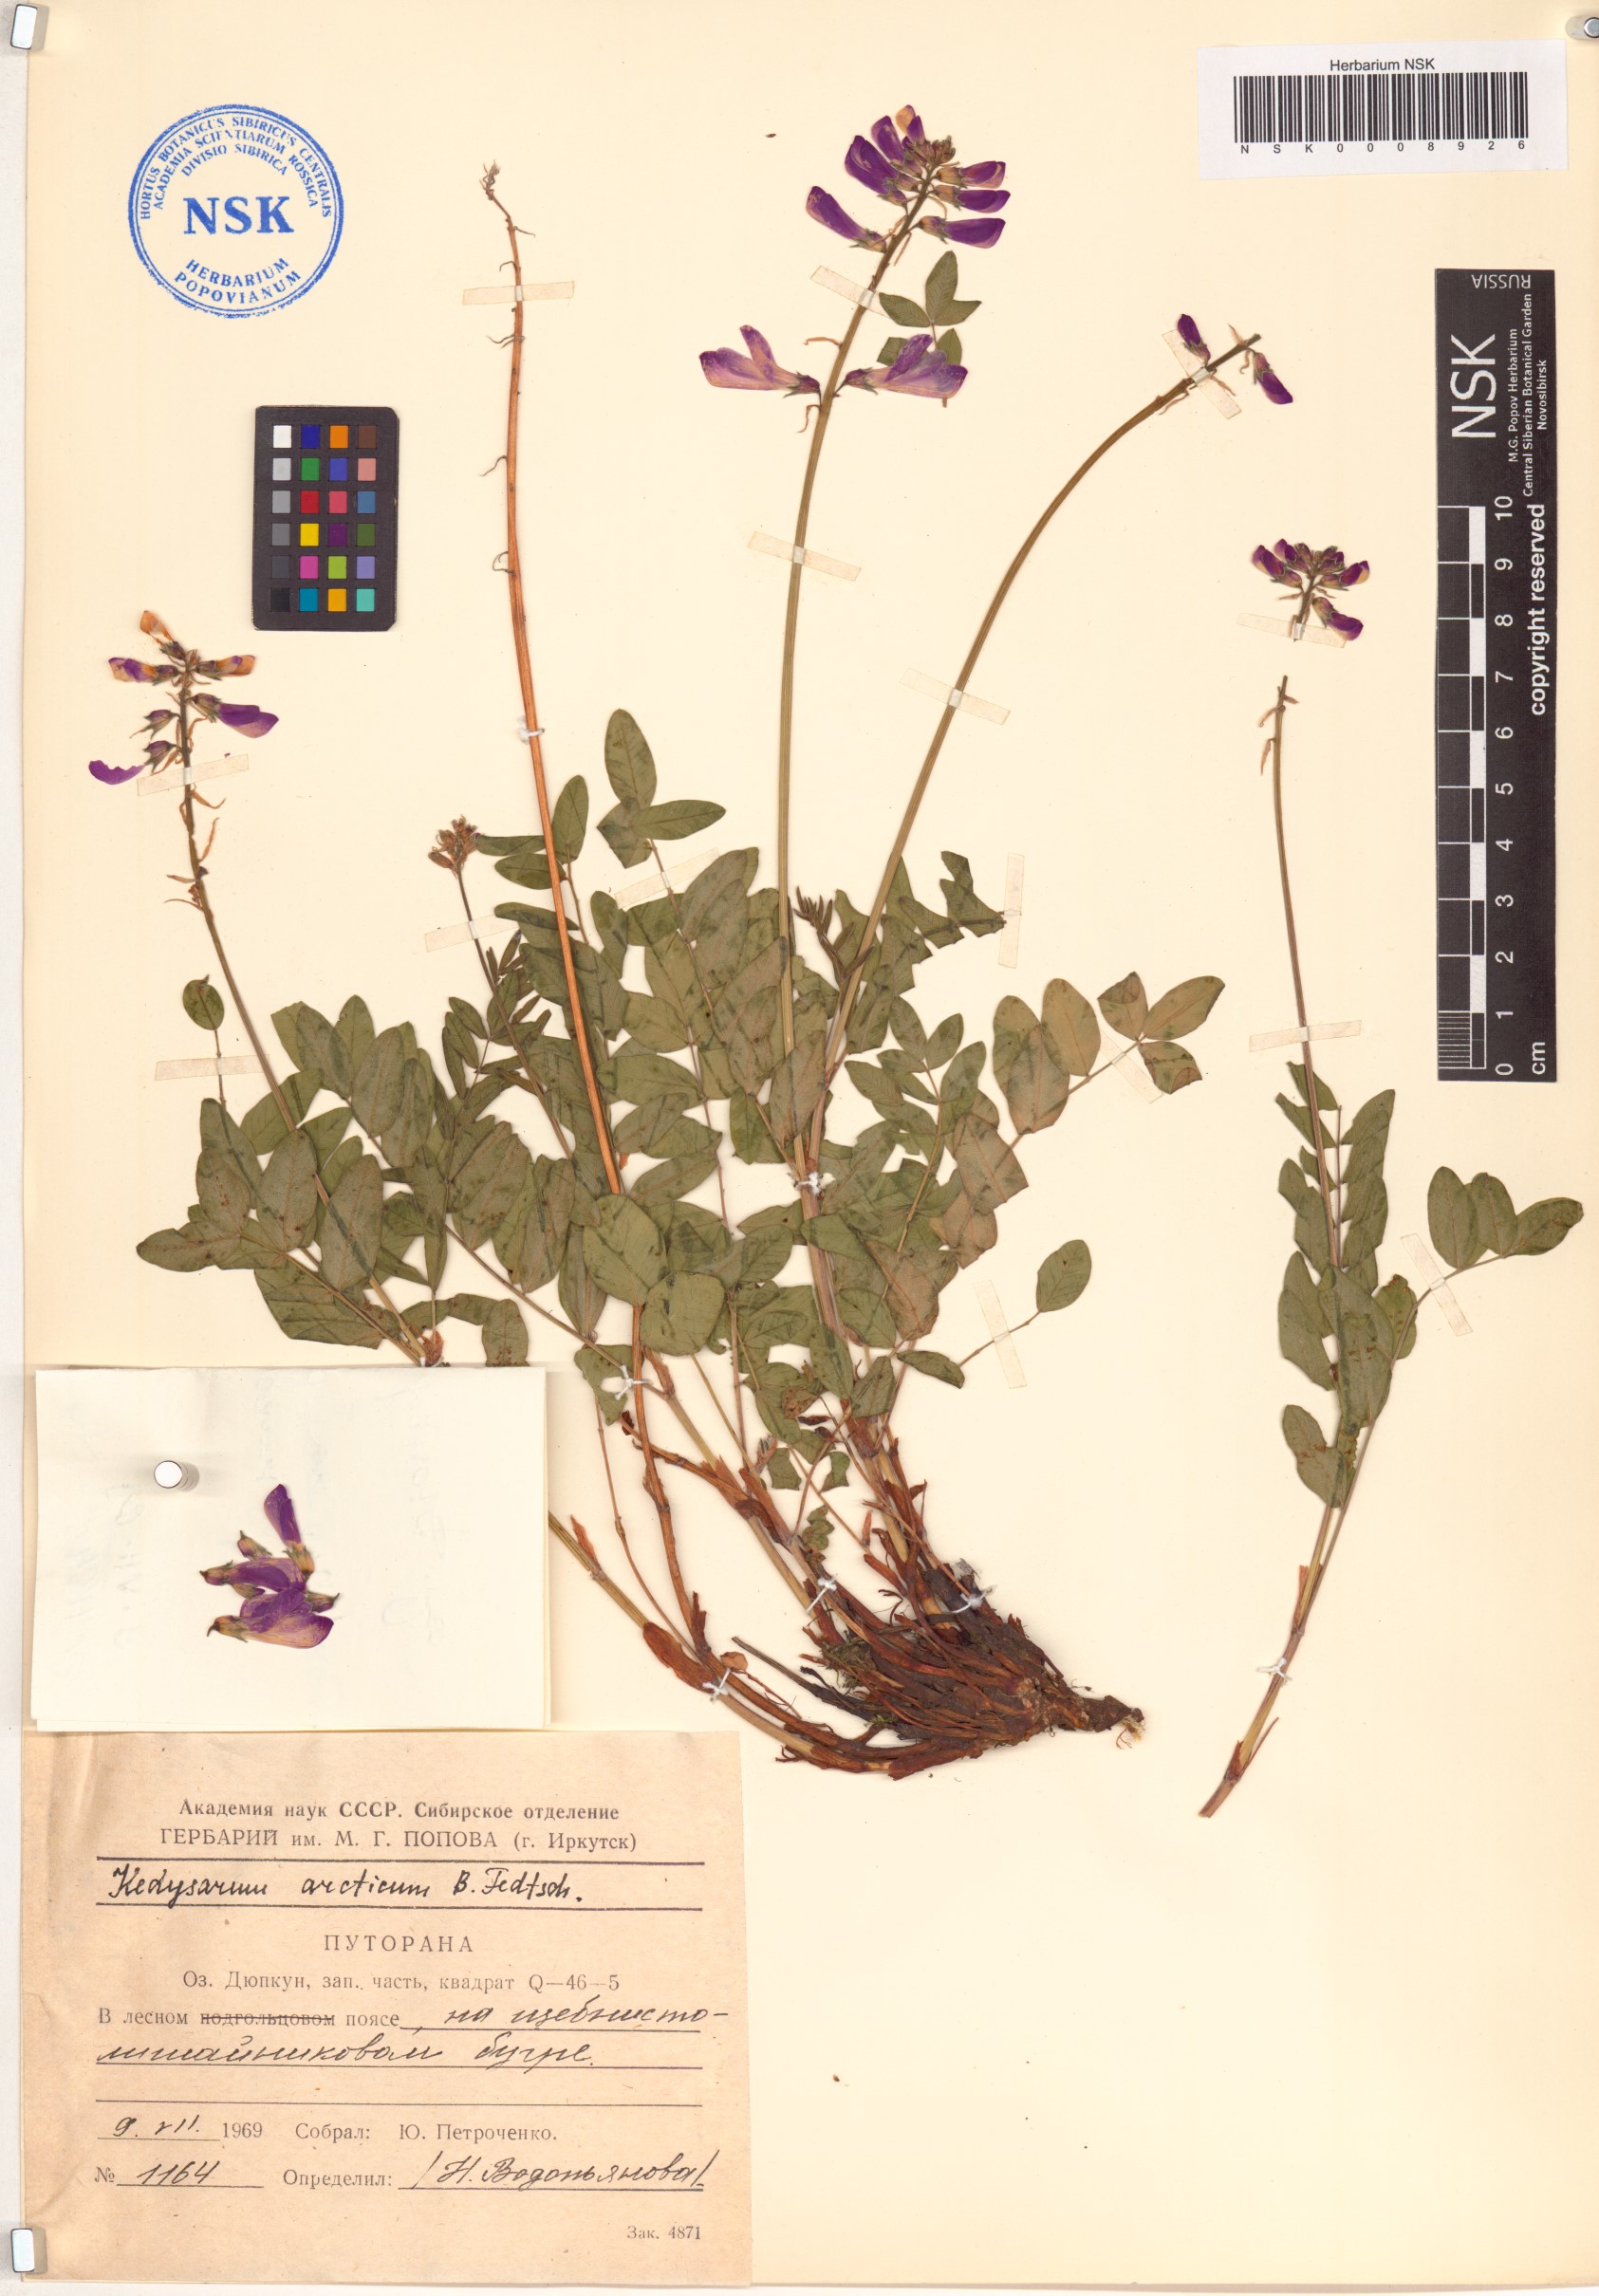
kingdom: Plantae
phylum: Tracheophyta
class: Magnoliopsida
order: Fabales
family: Fabaceae
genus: Hedysarum
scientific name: Hedysarum hedysaroides
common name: Alpine french-honeysuckle
